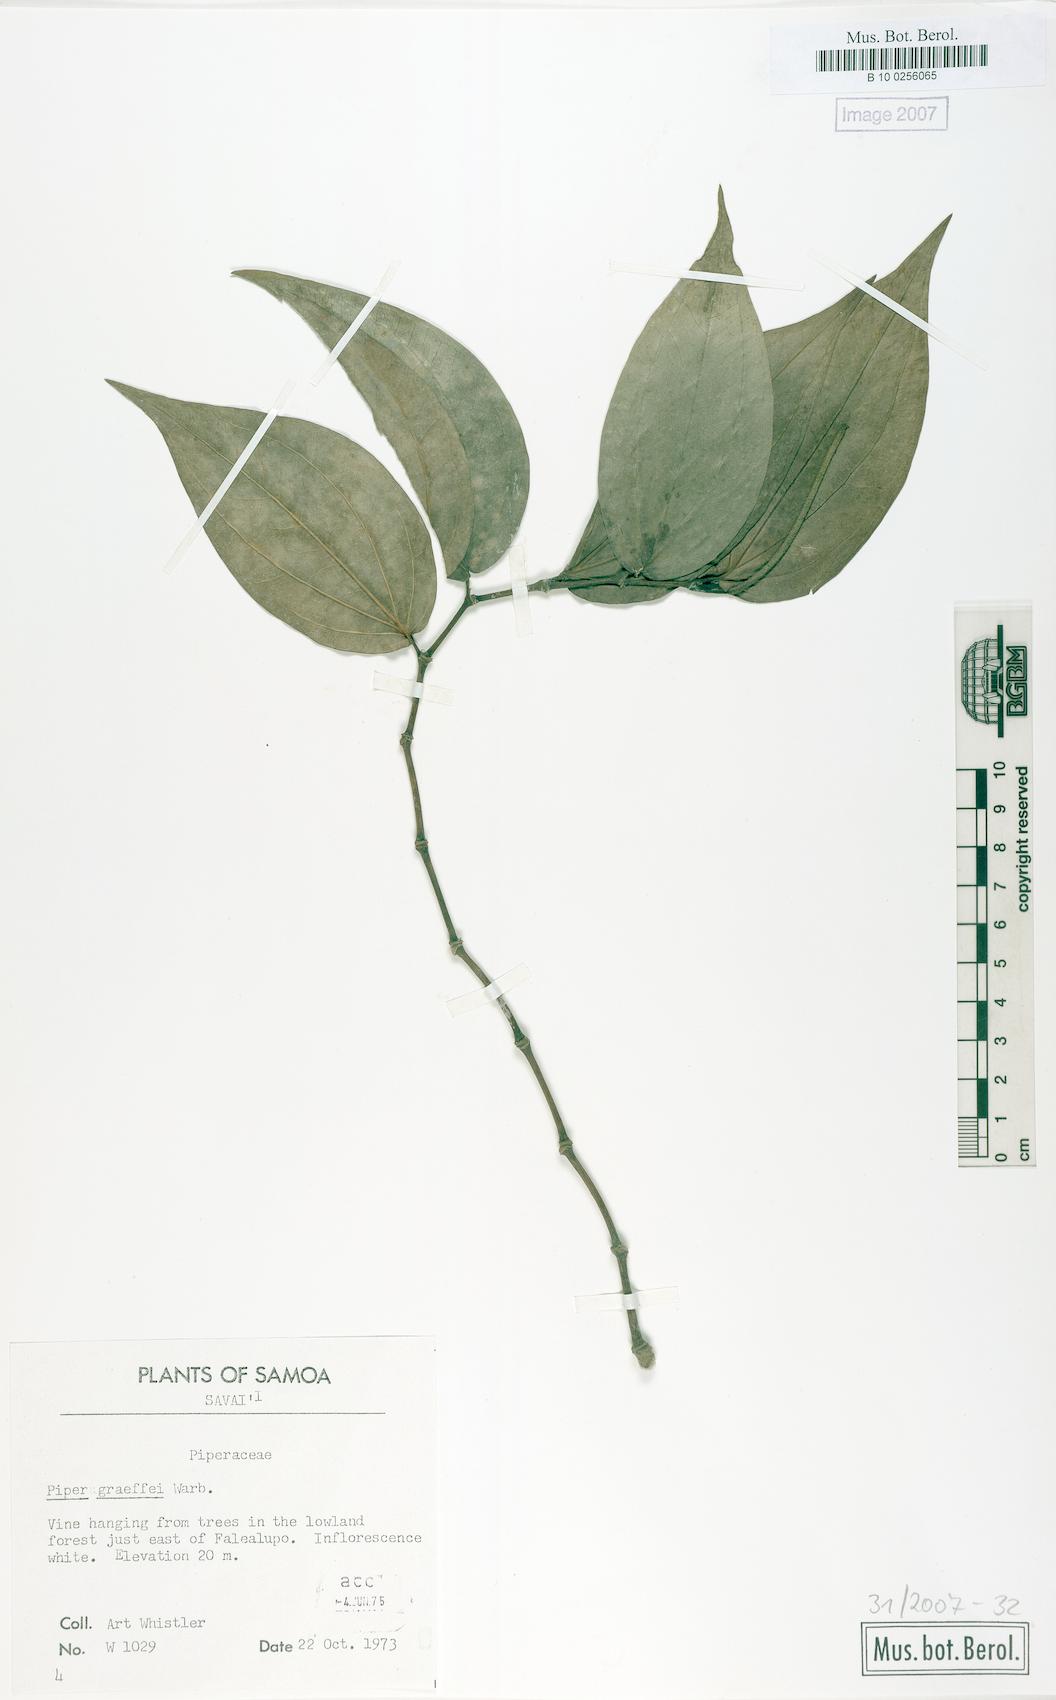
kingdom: Plantae
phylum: Tracheophyta
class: Magnoliopsida
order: Piperales
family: Piperaceae
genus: Piper
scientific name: Piper graeffei
